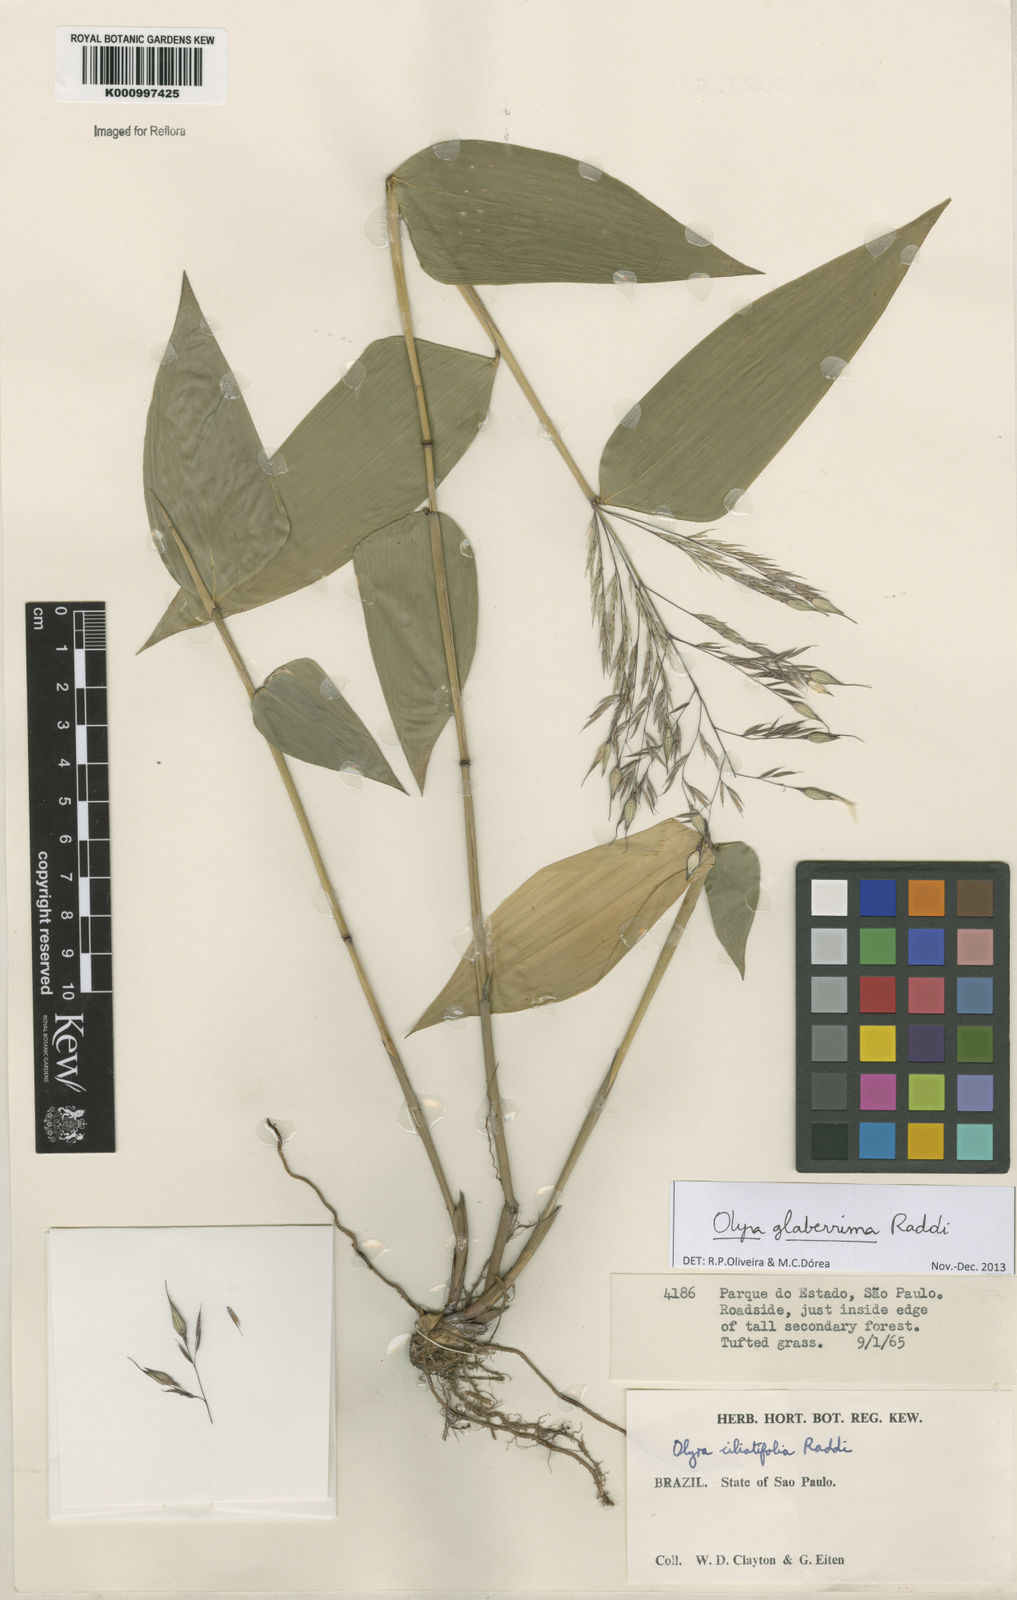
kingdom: Plantae
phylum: Tracheophyta
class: Liliopsida
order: Poales
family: Poaceae
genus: Olyra
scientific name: Olyra glaberrima
